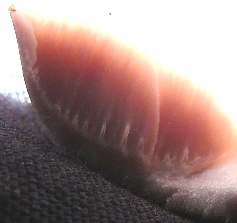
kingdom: Fungi
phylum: Basidiomycota
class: Agaricomycetes
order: Agaricales
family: Mycenaceae
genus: Mycena
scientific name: Mycena rosea
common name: rosa huesvamp
